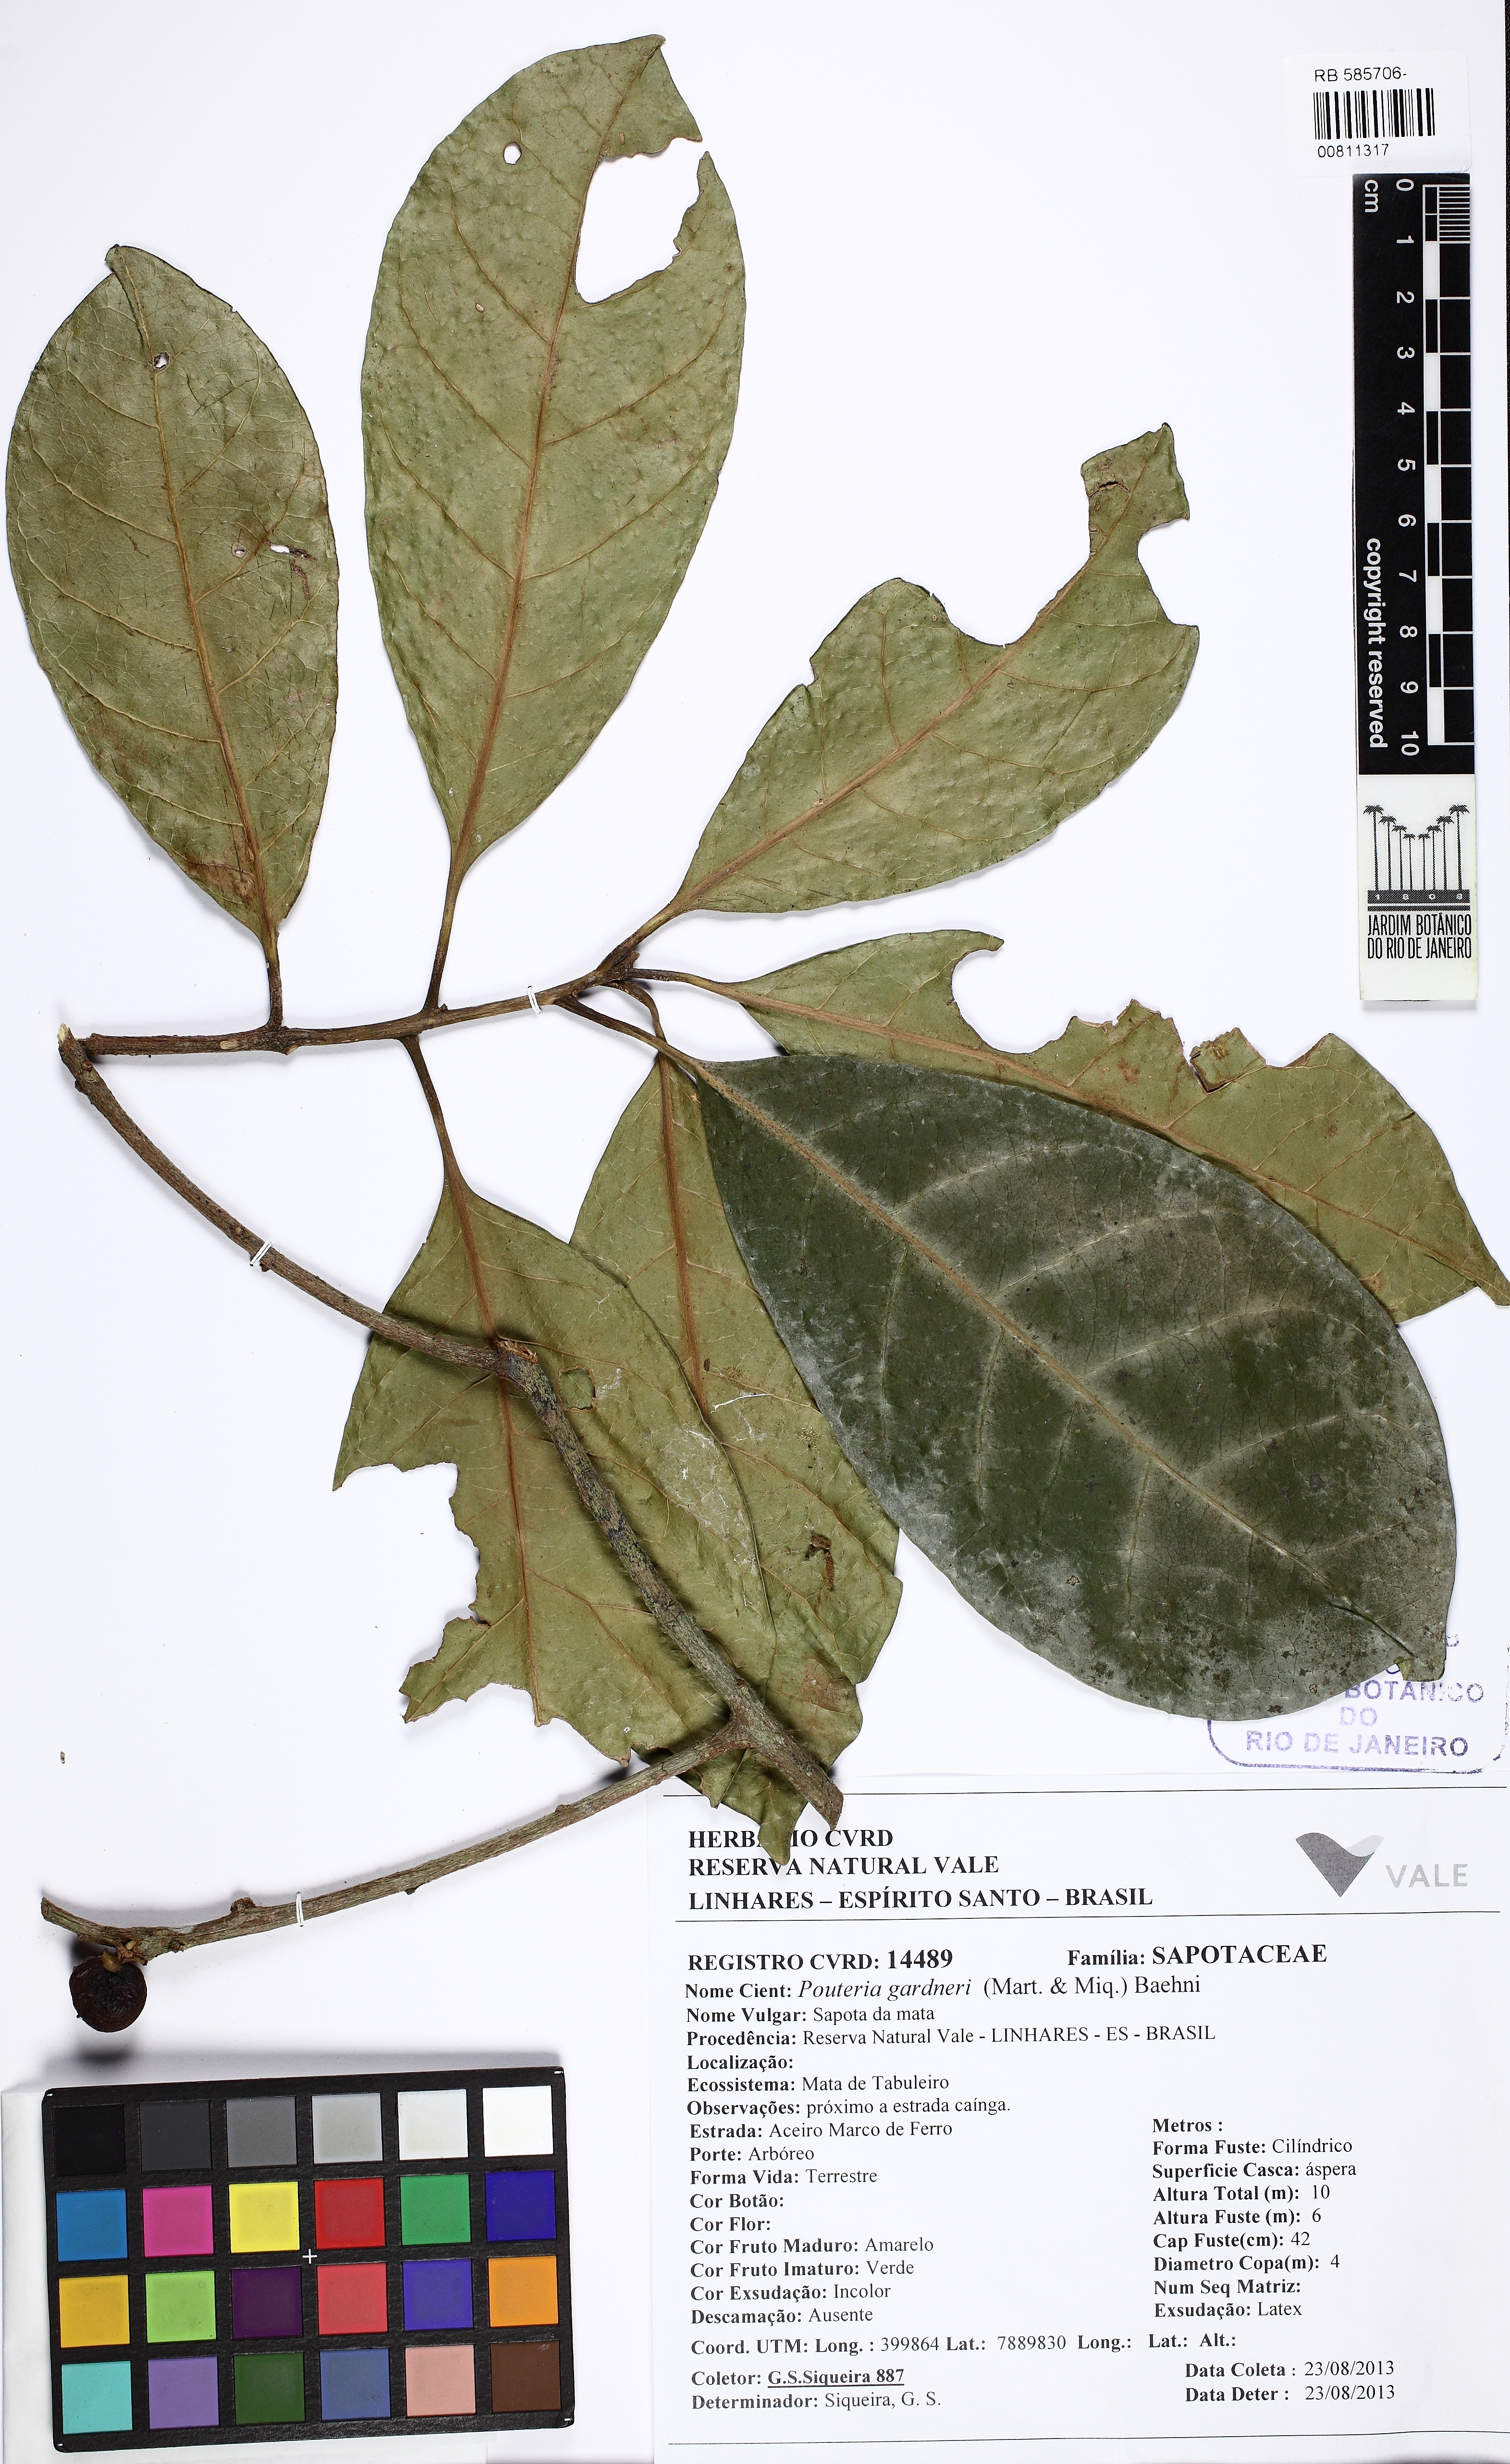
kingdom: Plantae
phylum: Tracheophyta
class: Magnoliopsida
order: Ericales
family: Sapotaceae
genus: Pouteria
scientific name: Pouteria gardneri
